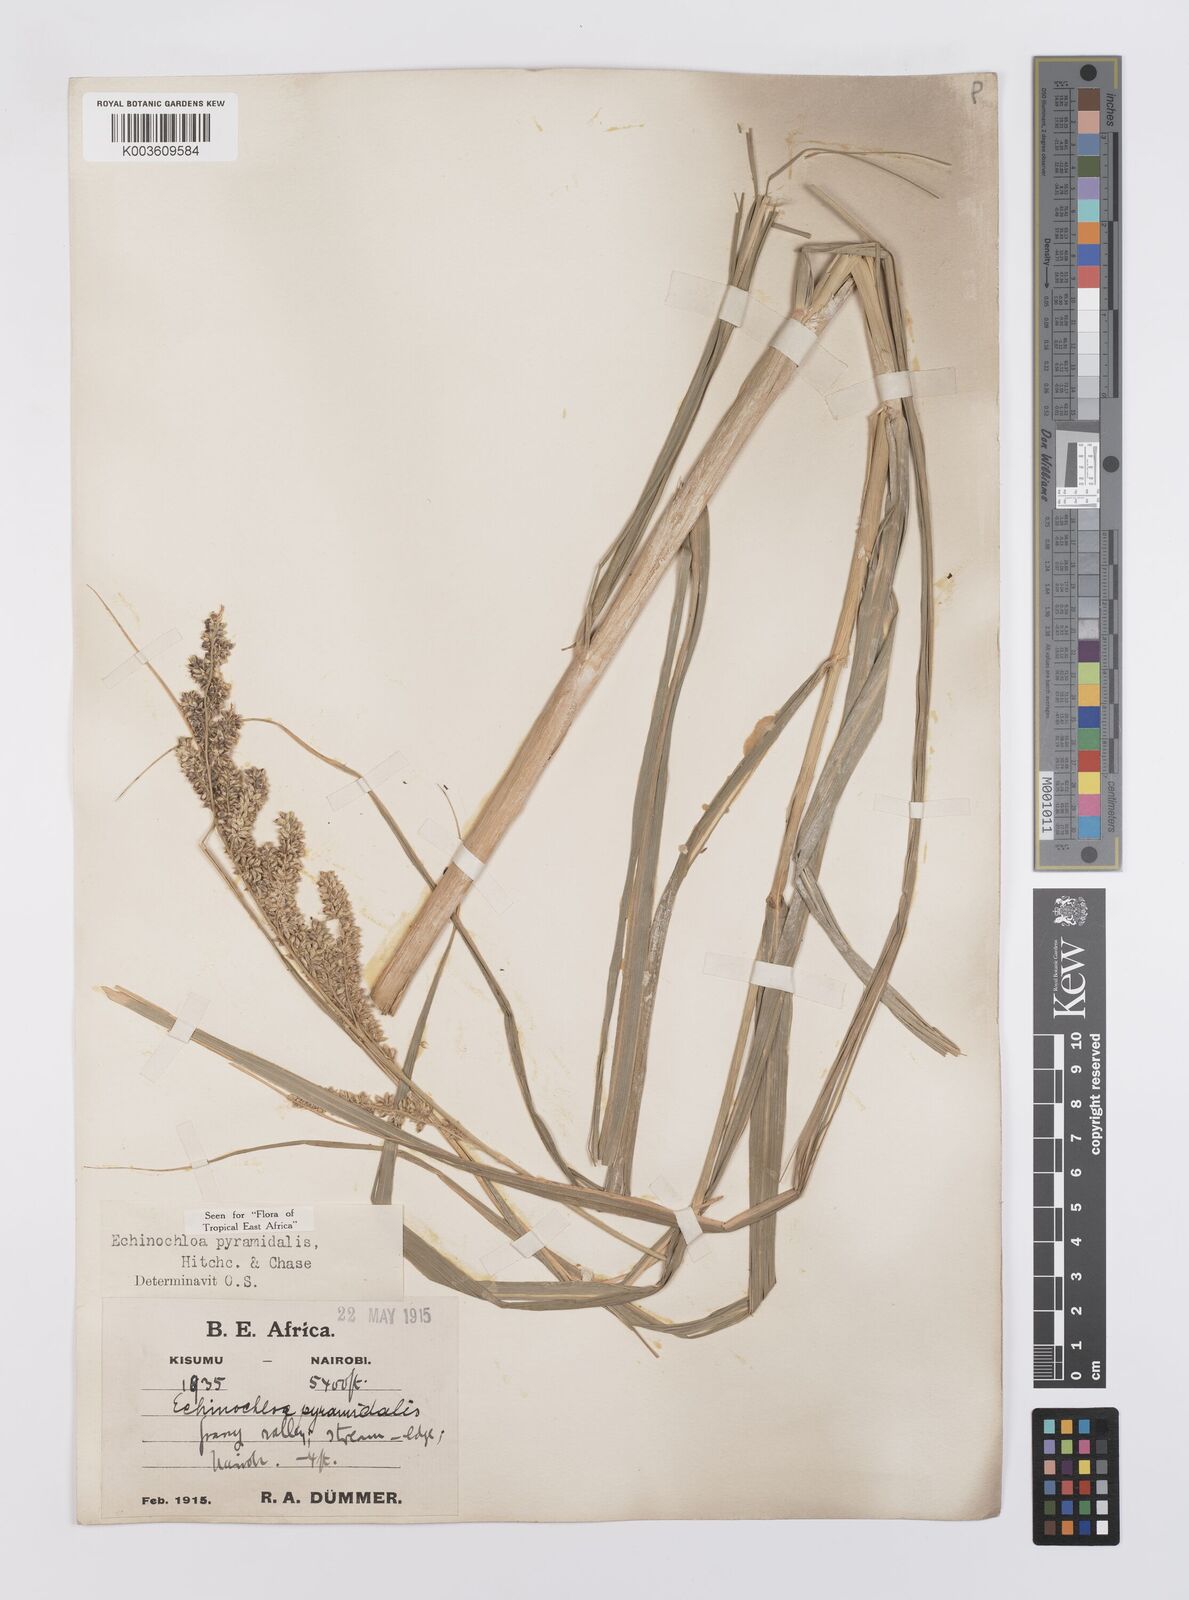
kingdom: Plantae
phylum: Tracheophyta
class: Liliopsida
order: Poales
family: Poaceae
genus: Echinochloa
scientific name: Echinochloa pyramidalis
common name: Antelope grass
